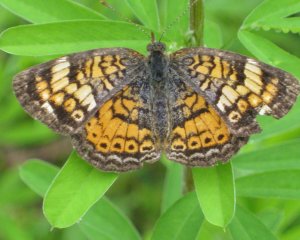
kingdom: Animalia
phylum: Arthropoda
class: Insecta
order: Lepidoptera
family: Nymphalidae
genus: Phyciodes
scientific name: Phyciodes tharos
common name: Pearl Crescent
